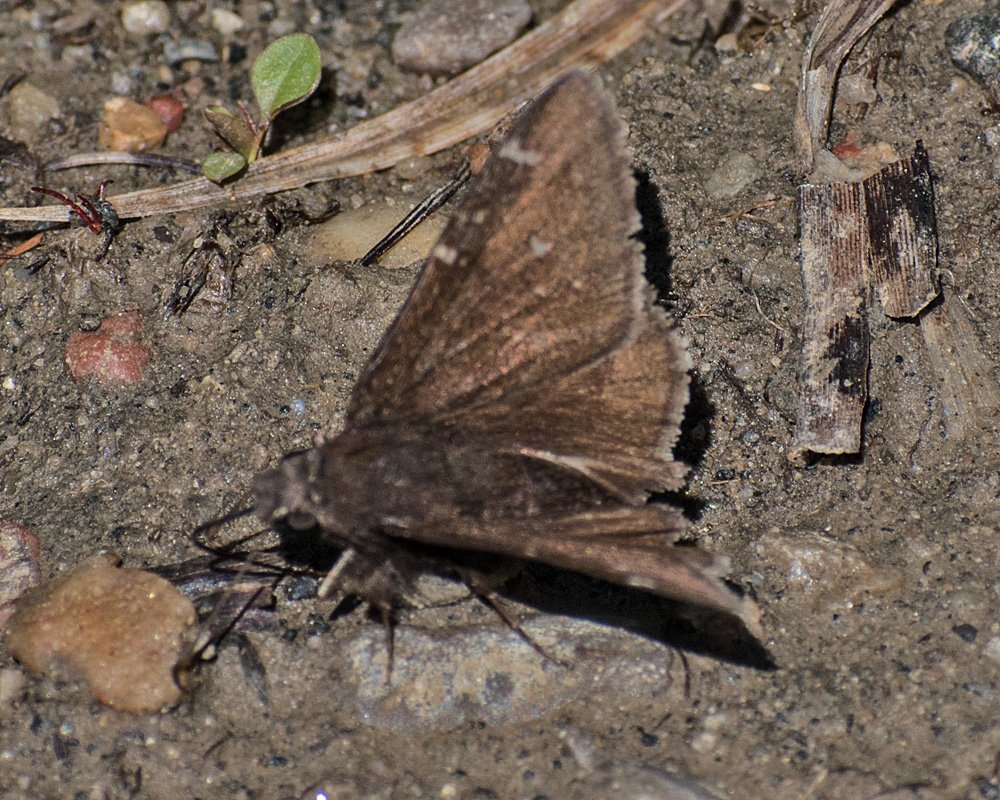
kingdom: Animalia
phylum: Arthropoda
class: Insecta
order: Lepidoptera
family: Hesperiidae
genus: Autochton
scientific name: Autochton
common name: Northern Cloudywing
